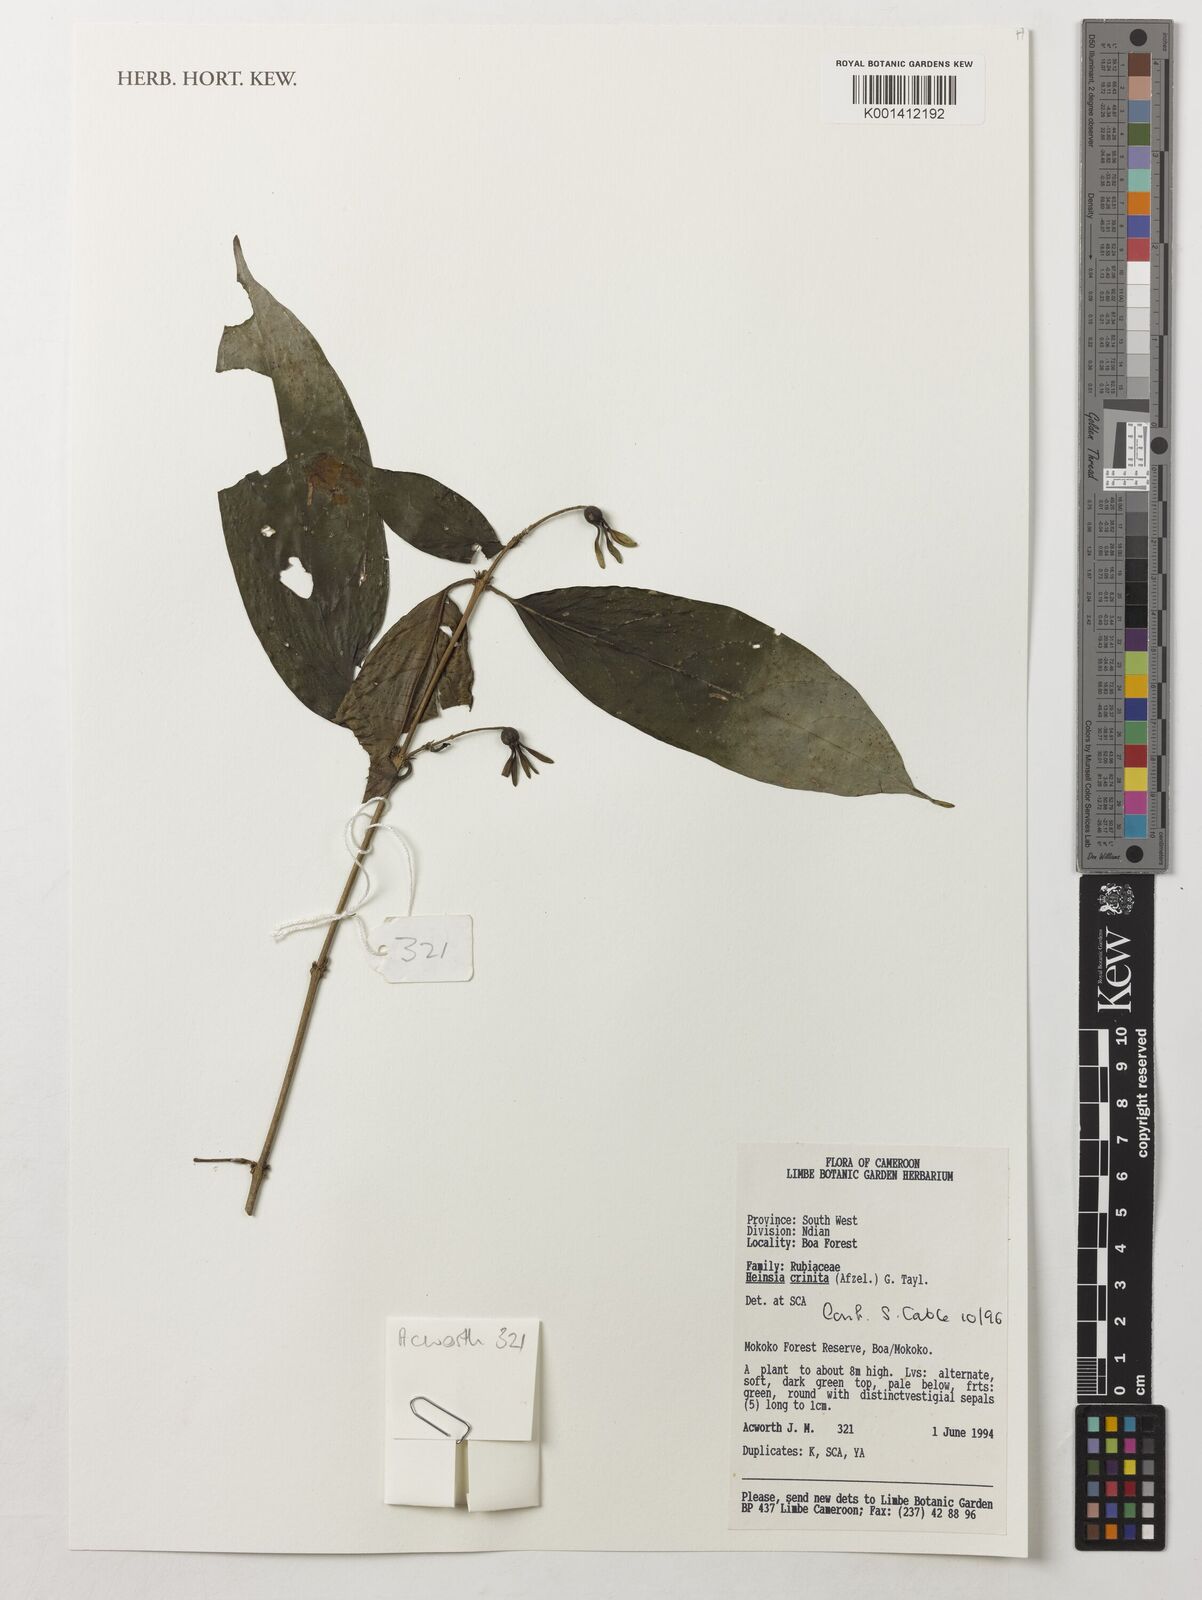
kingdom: Plantae
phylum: Tracheophyta
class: Magnoliopsida
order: Gentianales
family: Rubiaceae
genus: Heinsia
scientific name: Heinsia crinita
